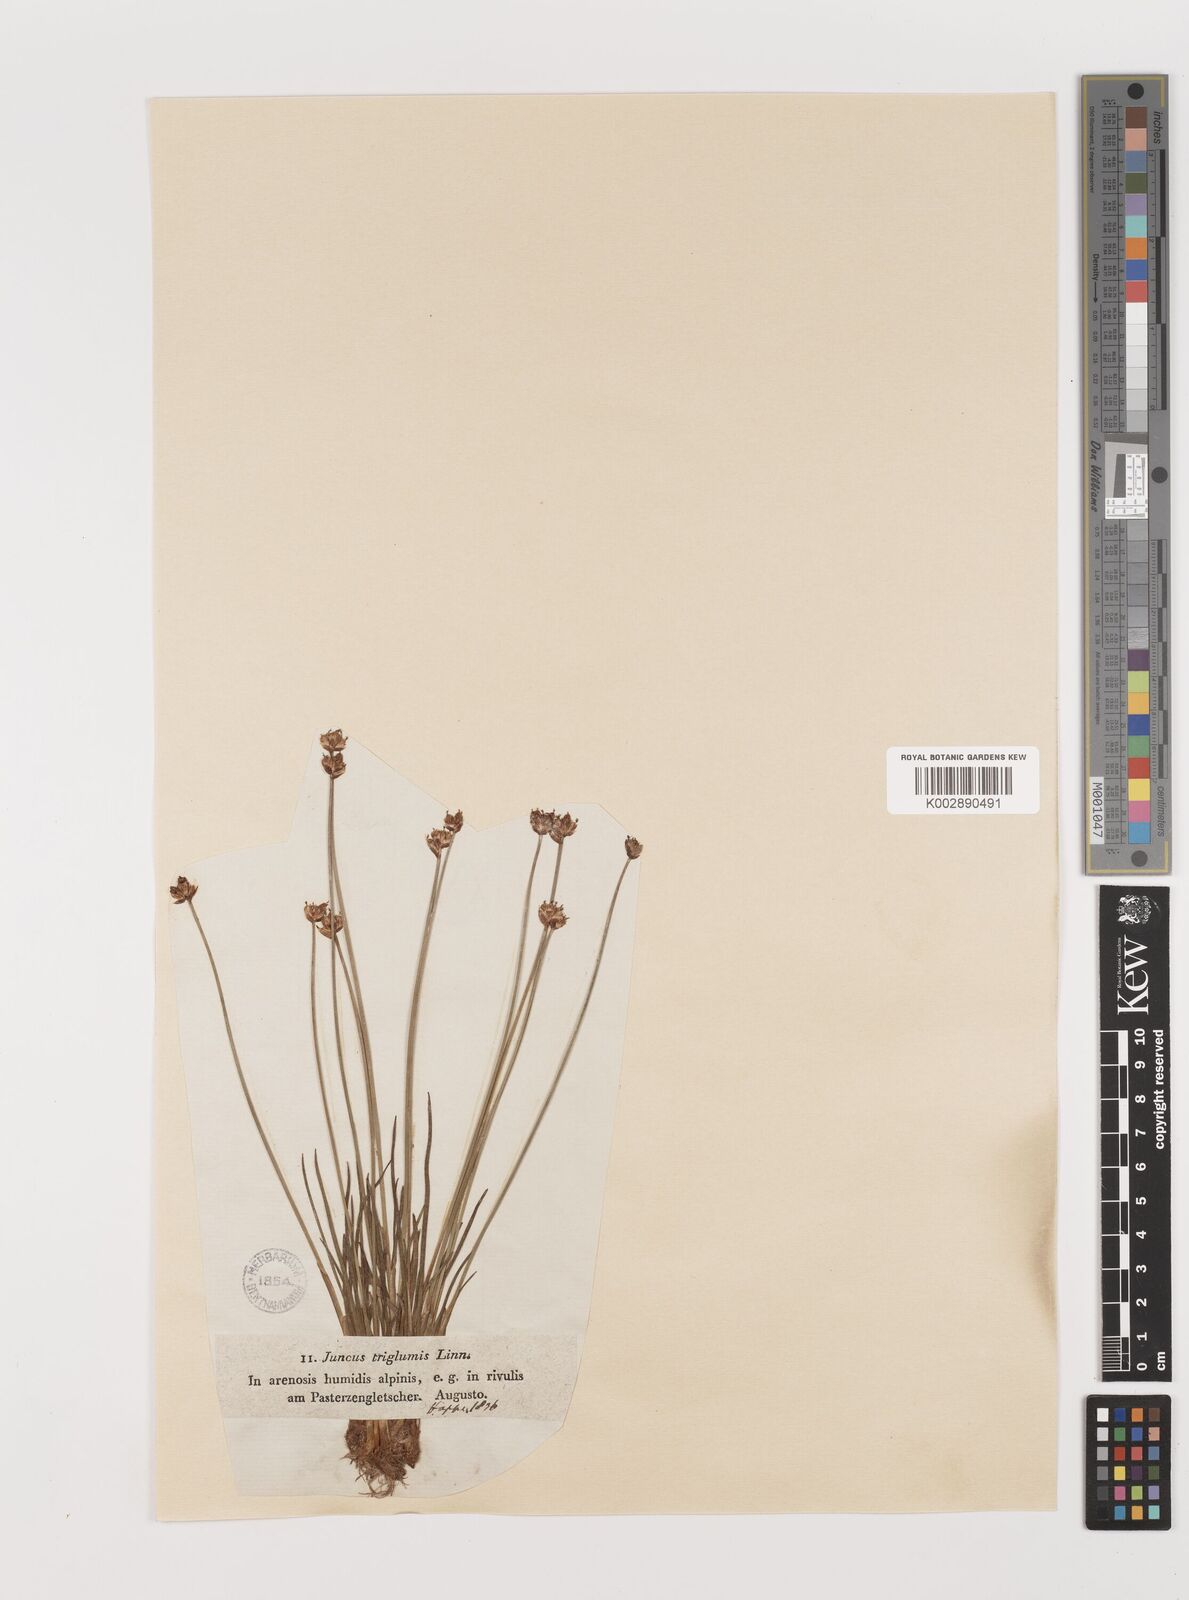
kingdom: Plantae
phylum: Tracheophyta
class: Liliopsida
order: Poales
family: Juncaceae
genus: Juncus
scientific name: Juncus triglumis
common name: Three-flowered rush
